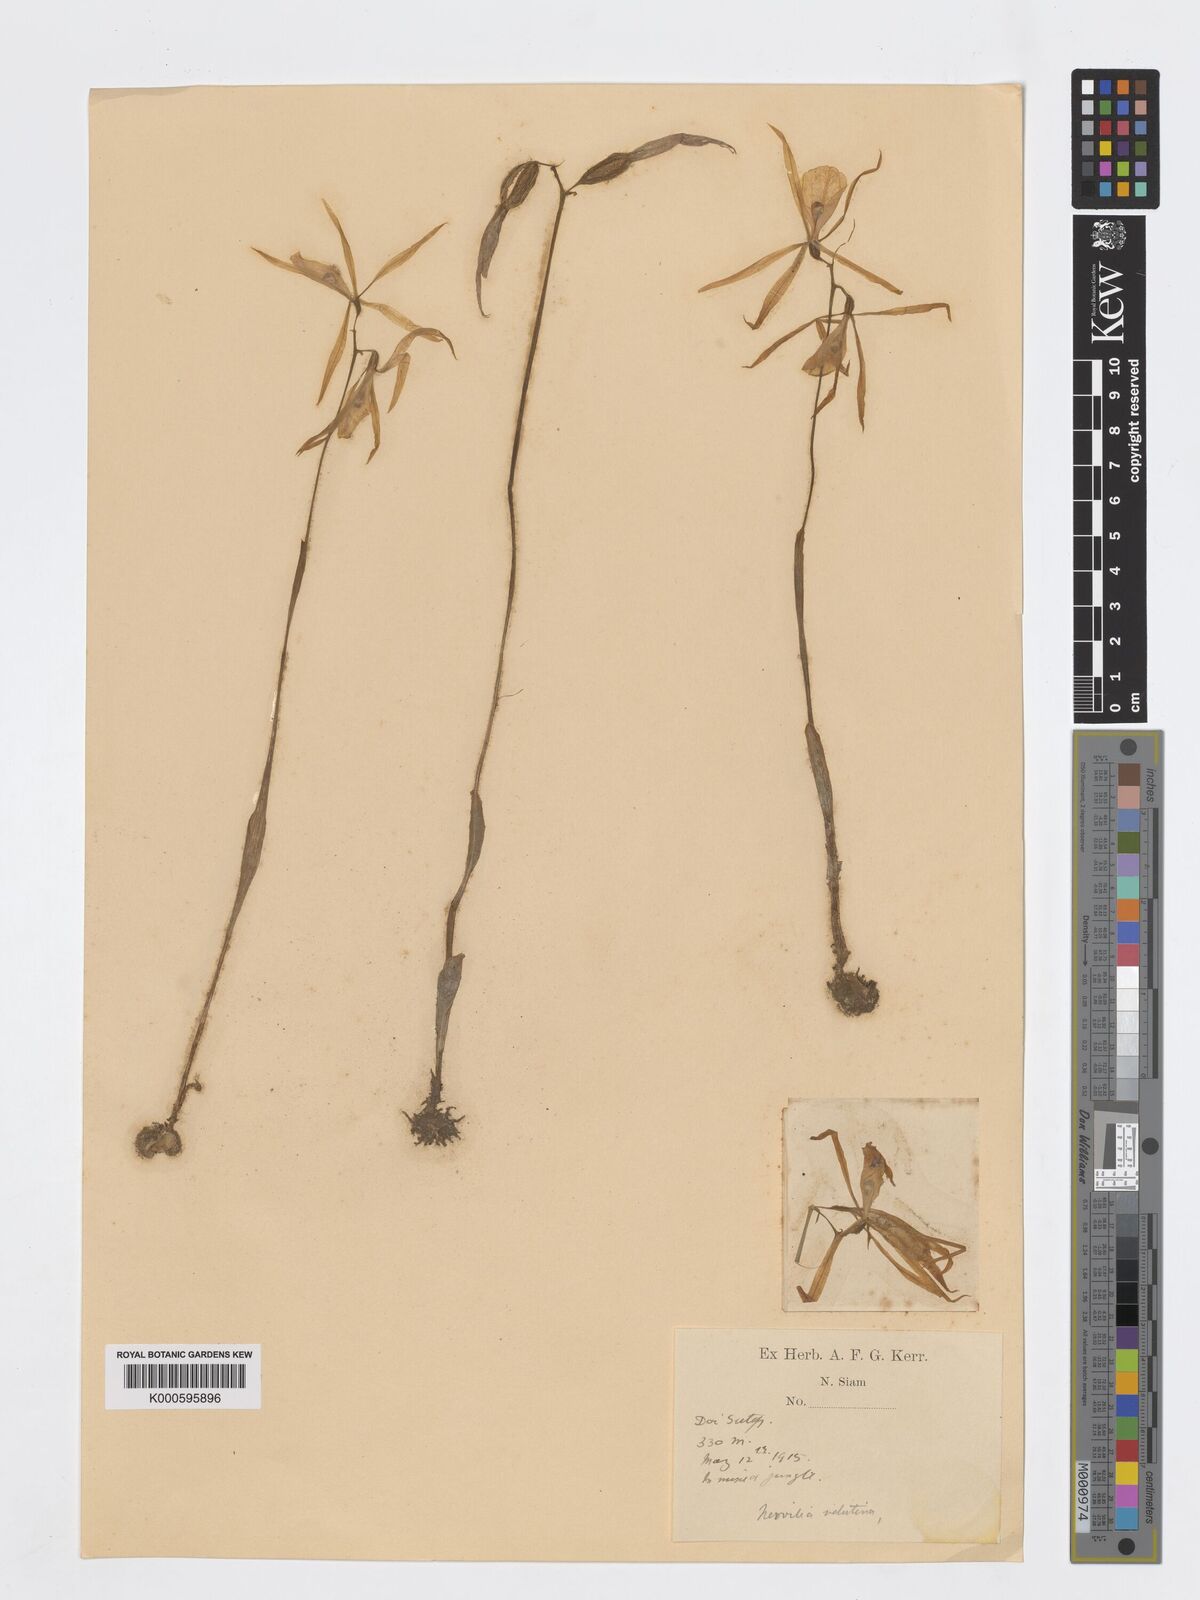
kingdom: Plantae
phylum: Tracheophyta
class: Liliopsida
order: Asparagales
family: Orchidaceae
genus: Nervilia
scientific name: Nervilia plicata
